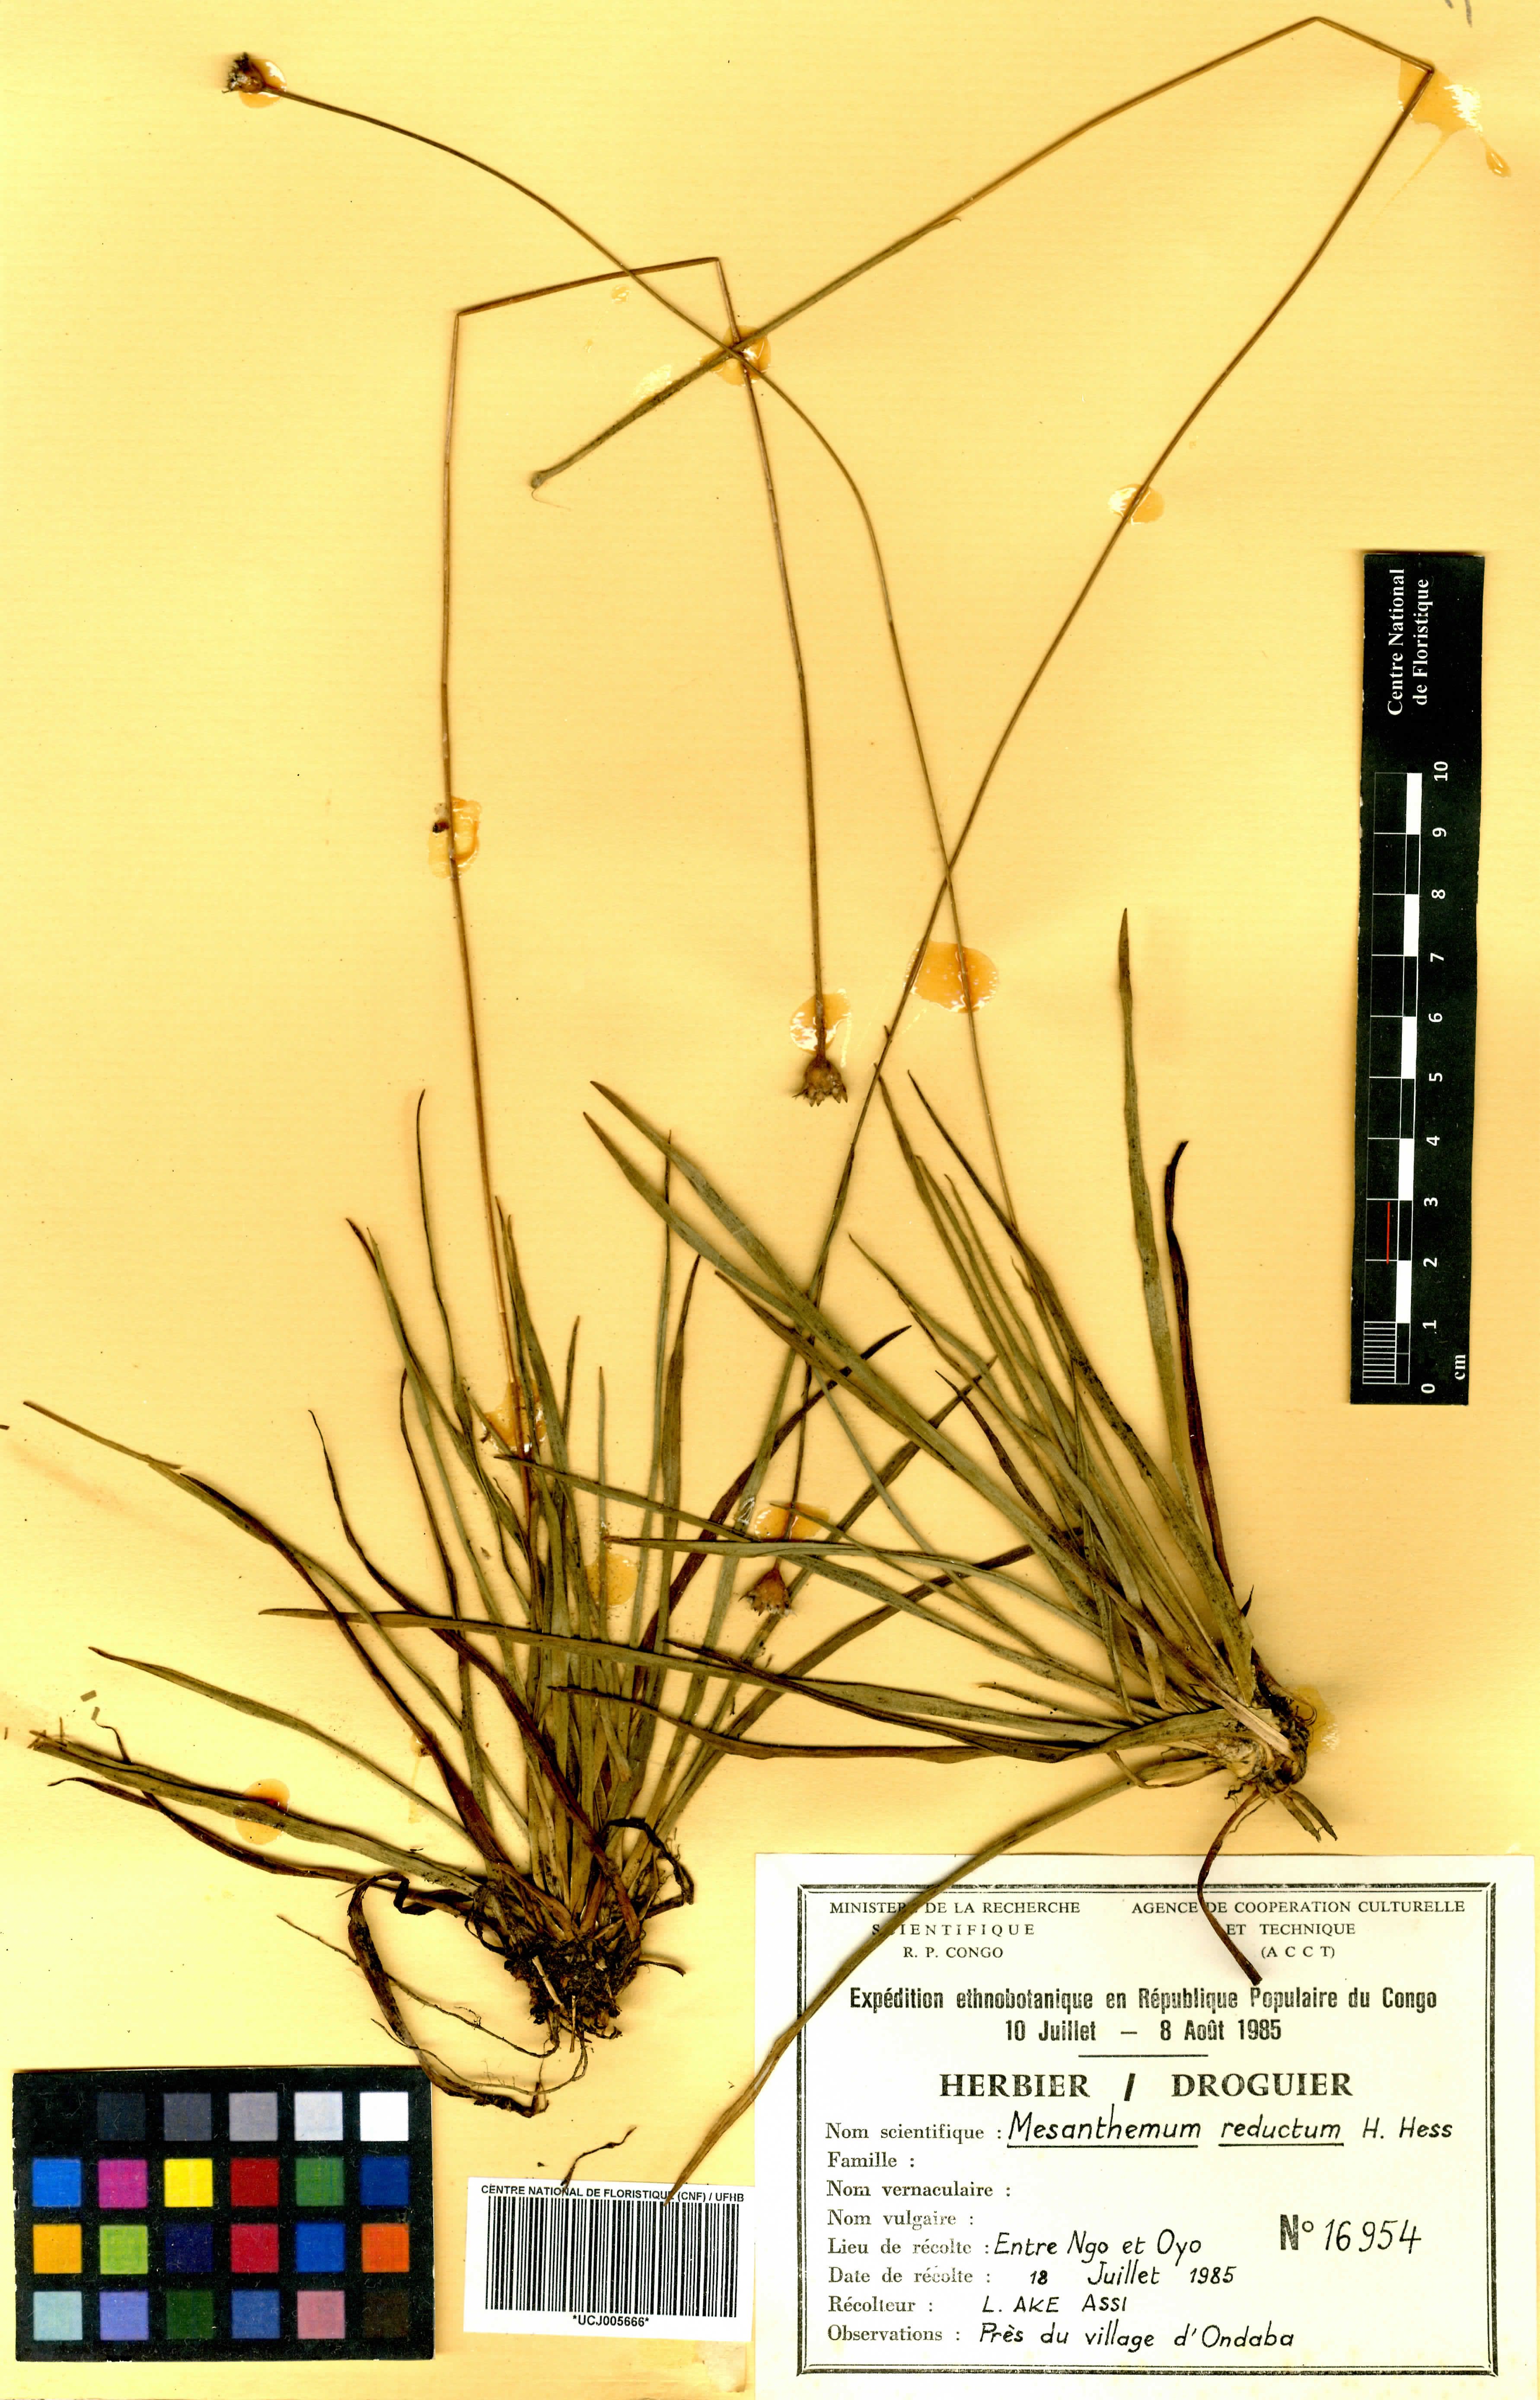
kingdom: Plantae
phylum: Tracheophyta
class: Liliopsida
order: Poales
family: Eriocaulaceae
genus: Mesanthemum
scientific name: Mesanthemum reductum
